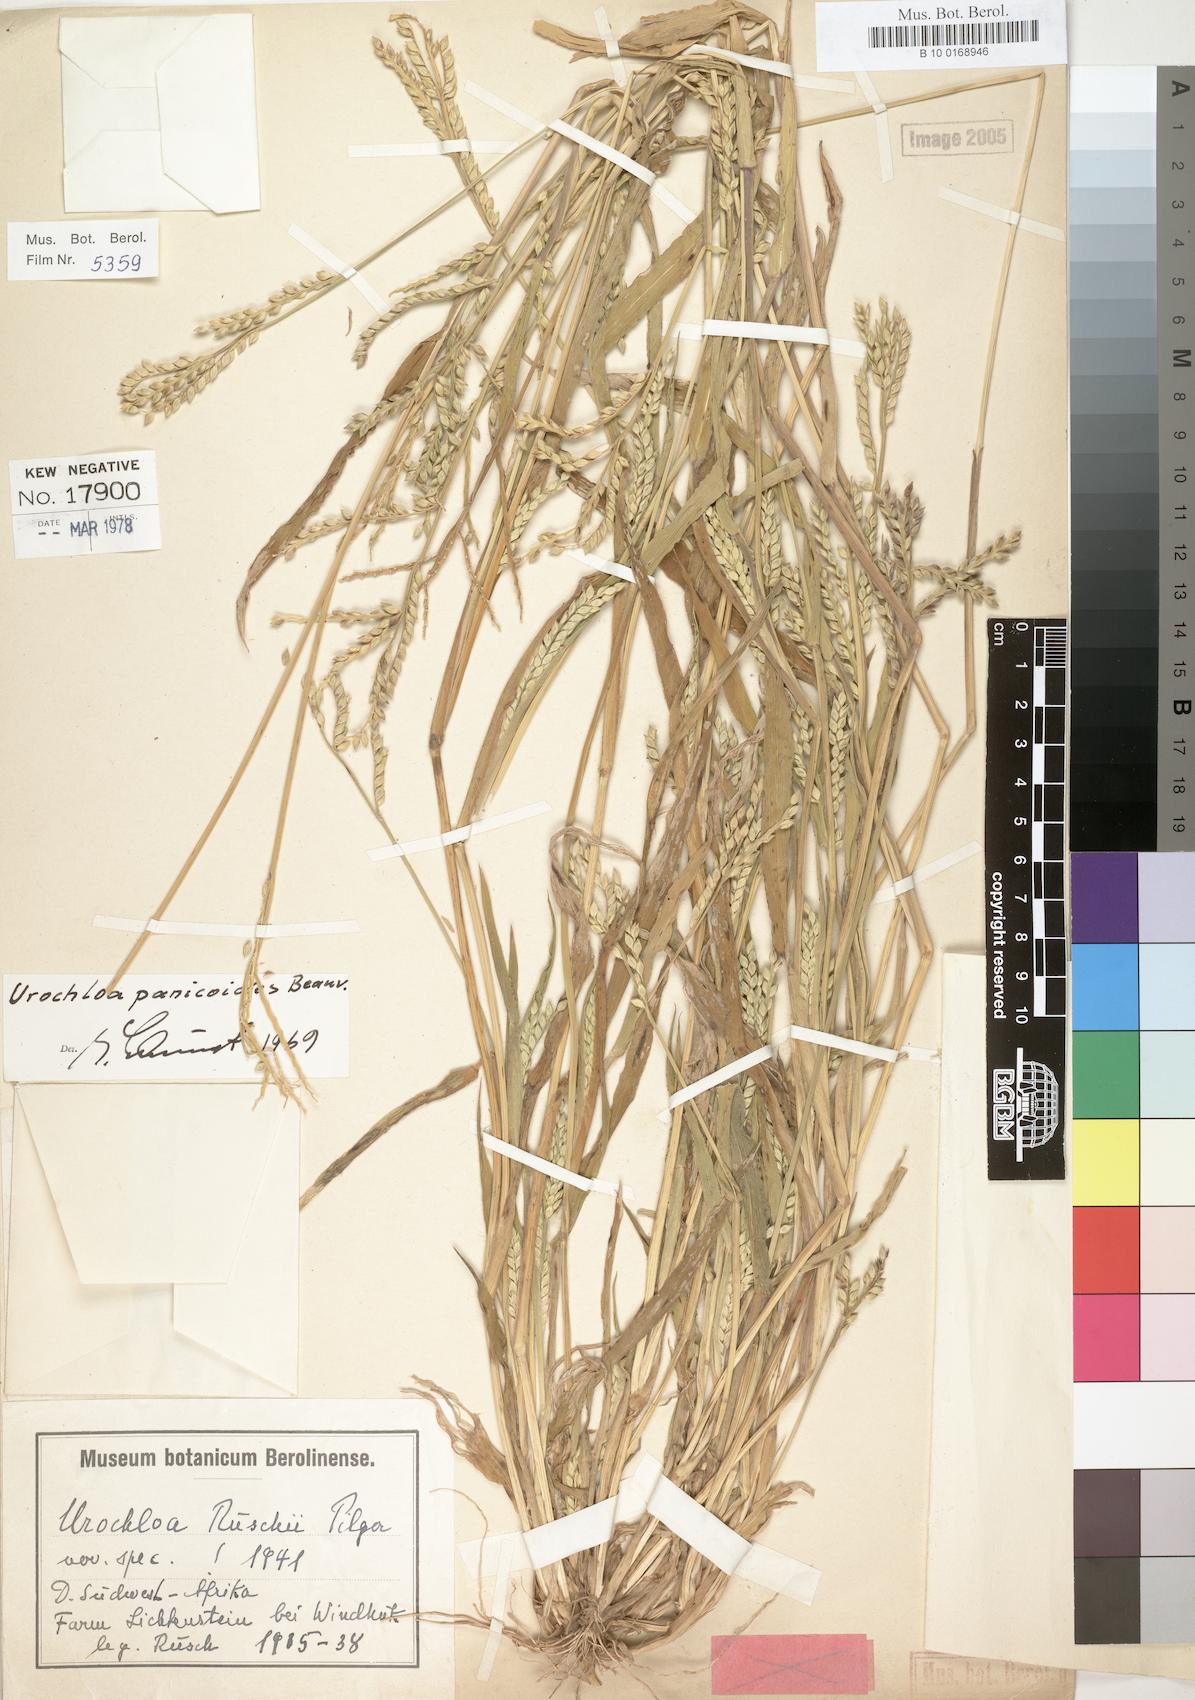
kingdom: Plantae
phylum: Tracheophyta
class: Liliopsida
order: Poales
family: Poaceae
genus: Urochloa
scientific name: Urochloa panicoides
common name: Sharp-flowered signal-grass
